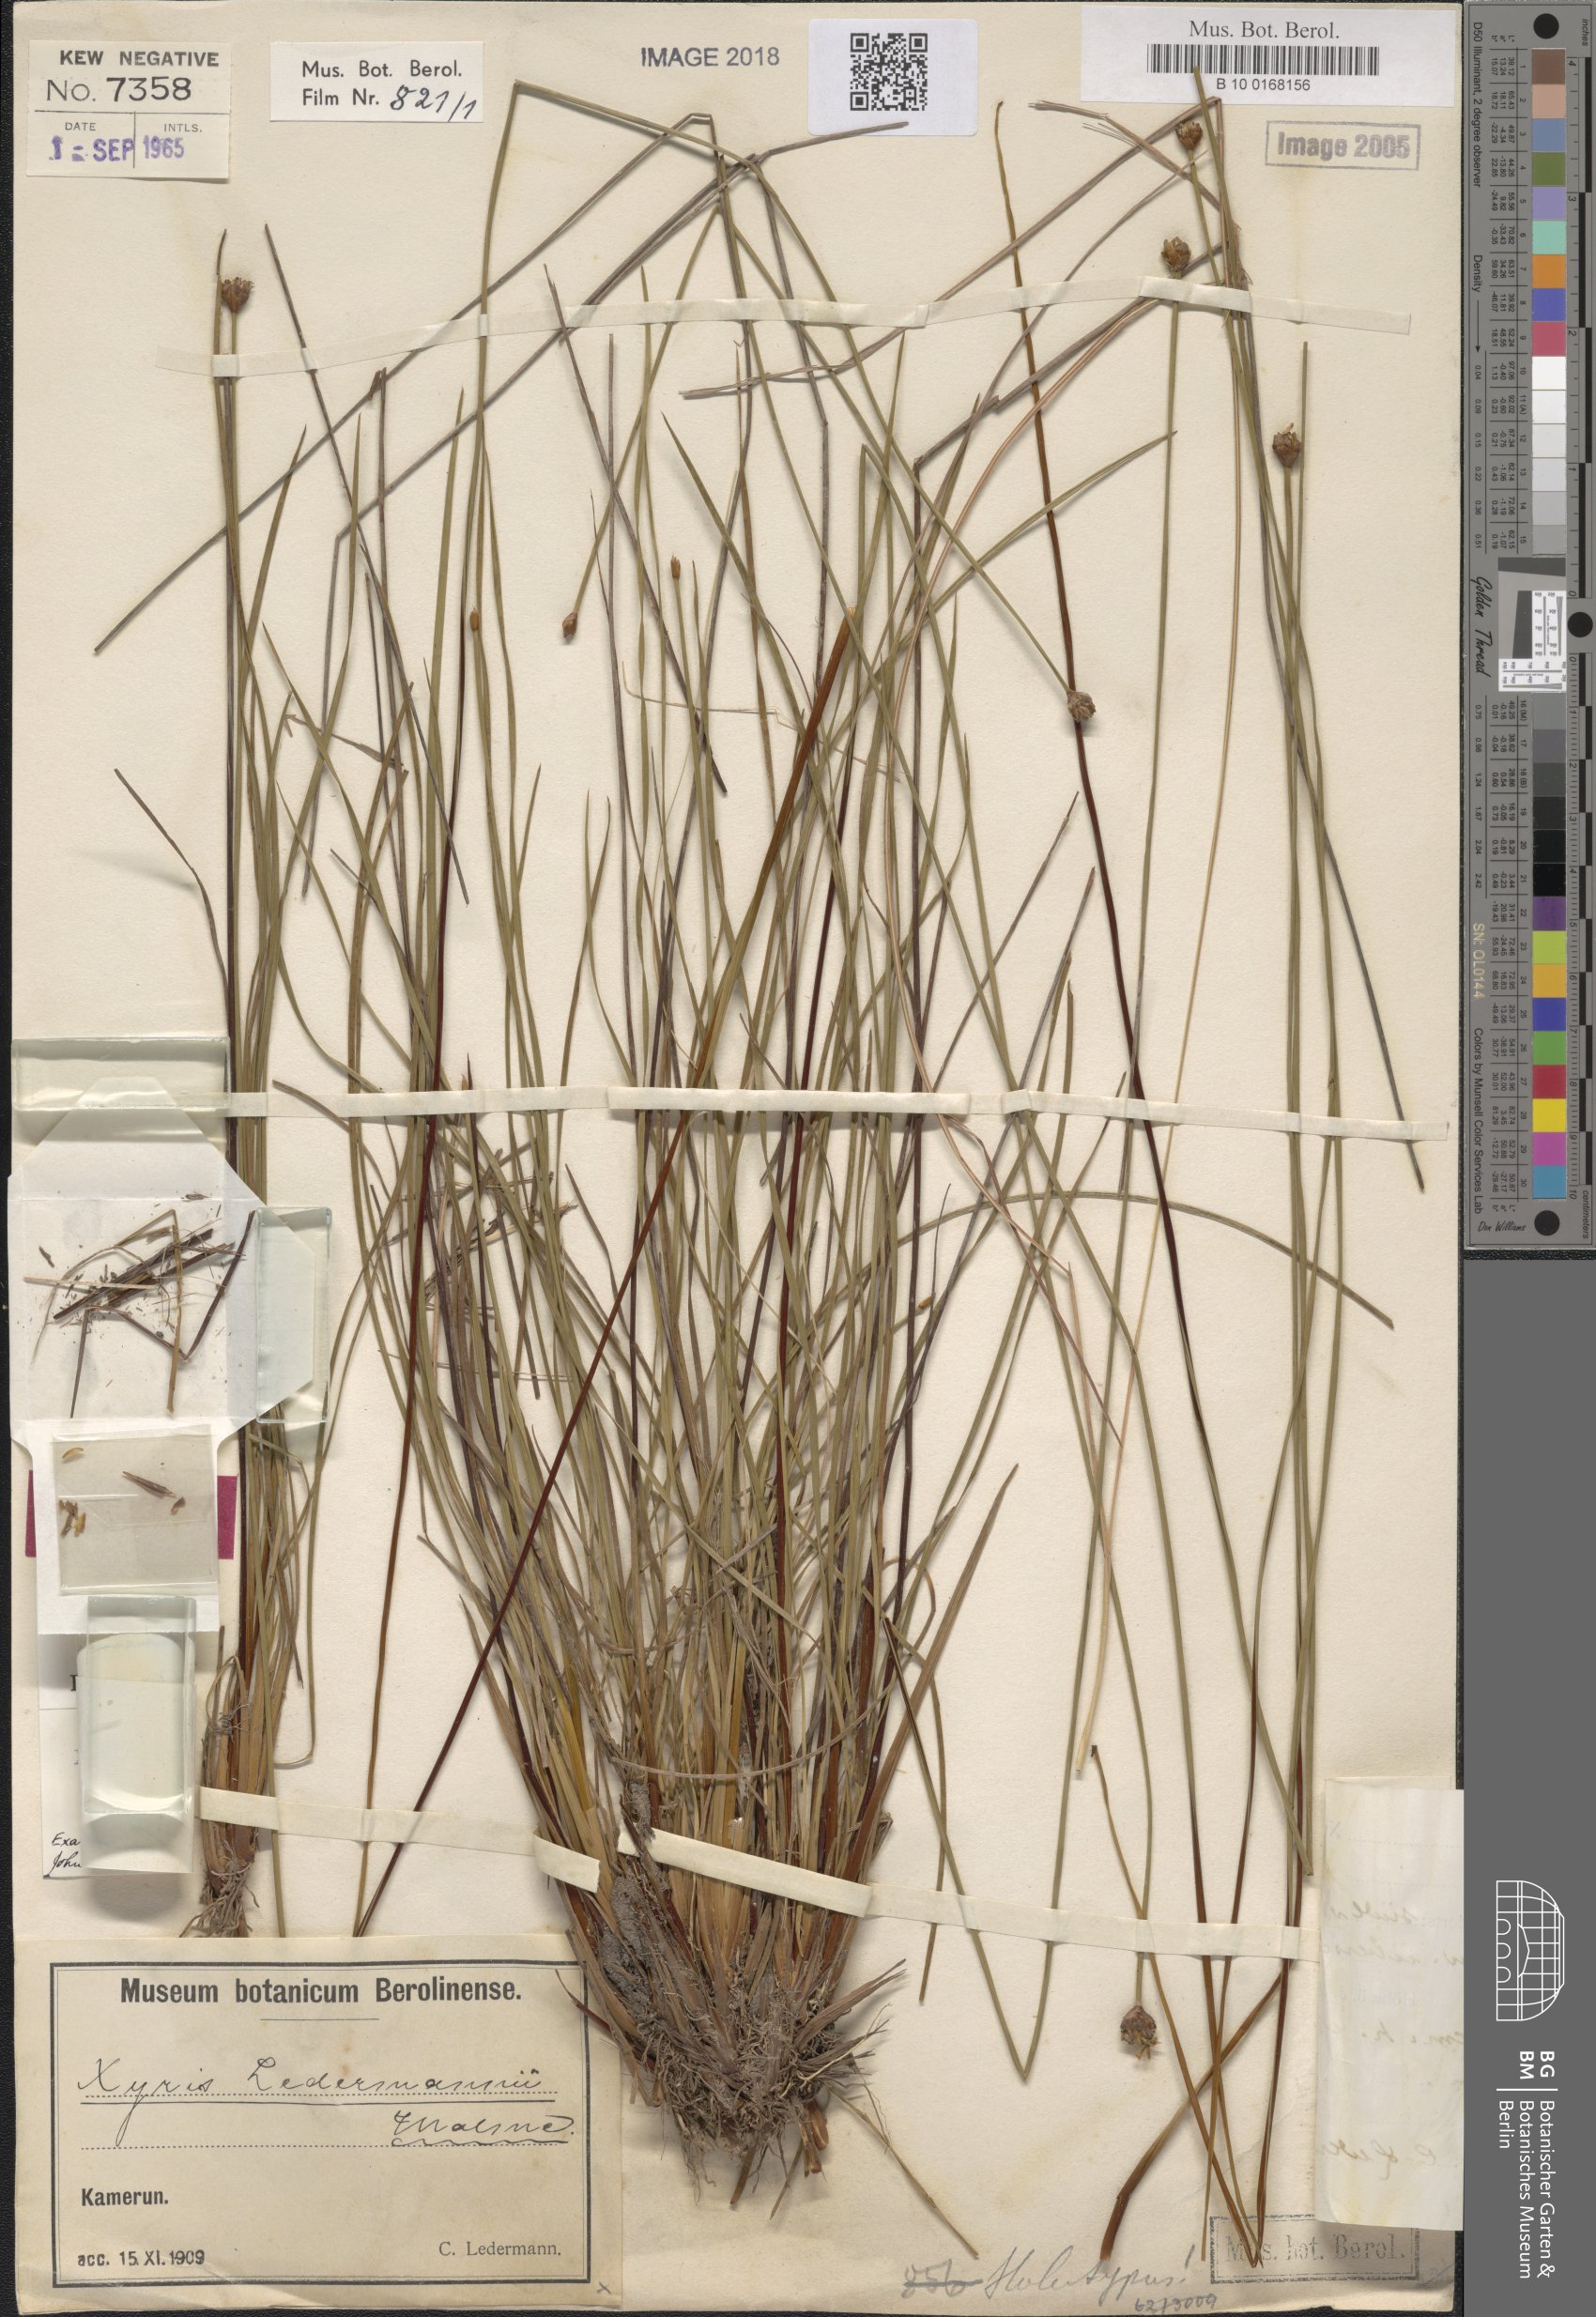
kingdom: Plantae
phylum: Tracheophyta
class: Liliopsida
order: Poales
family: Xyridaceae
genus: Xyris
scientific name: Xyris barteri
